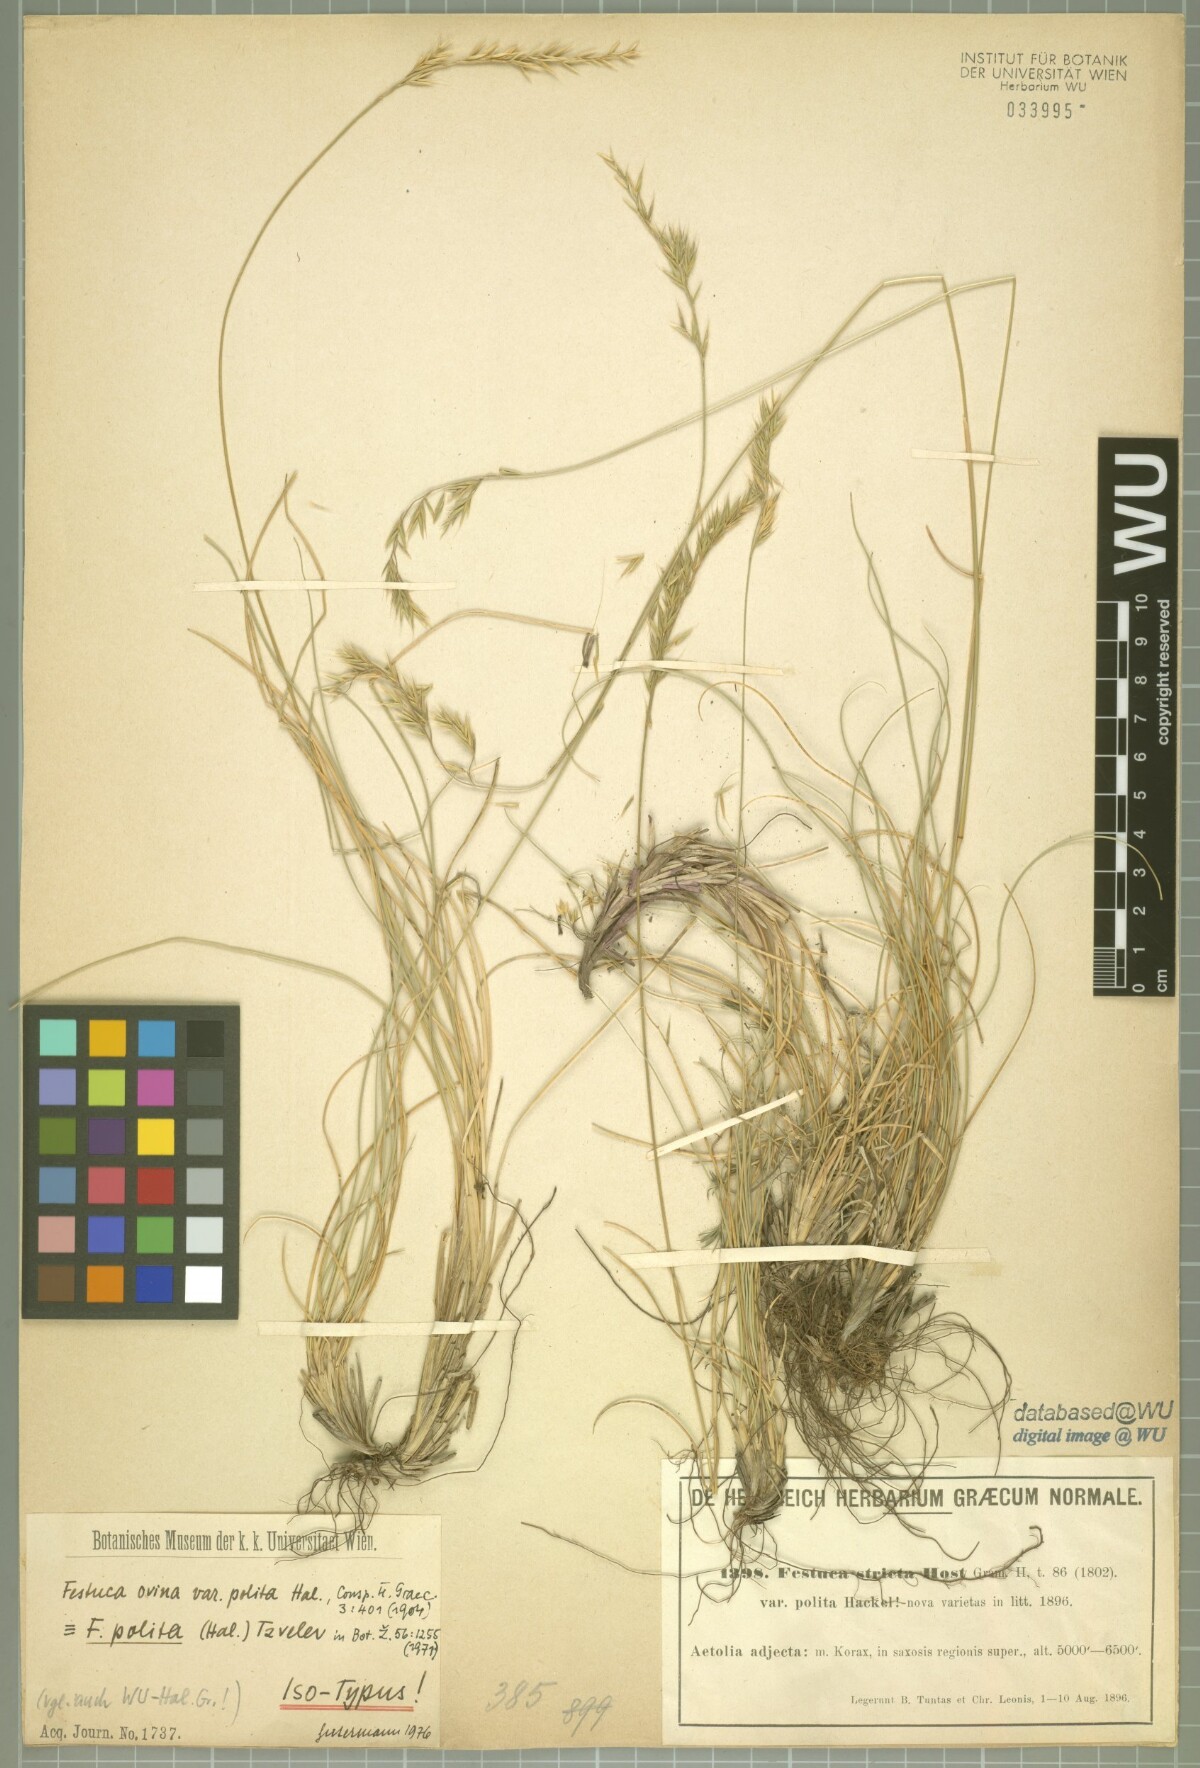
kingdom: Plantae
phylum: Tracheophyta
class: Liliopsida
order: Poales
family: Poaceae
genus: Festuca
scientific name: Festuca polita
